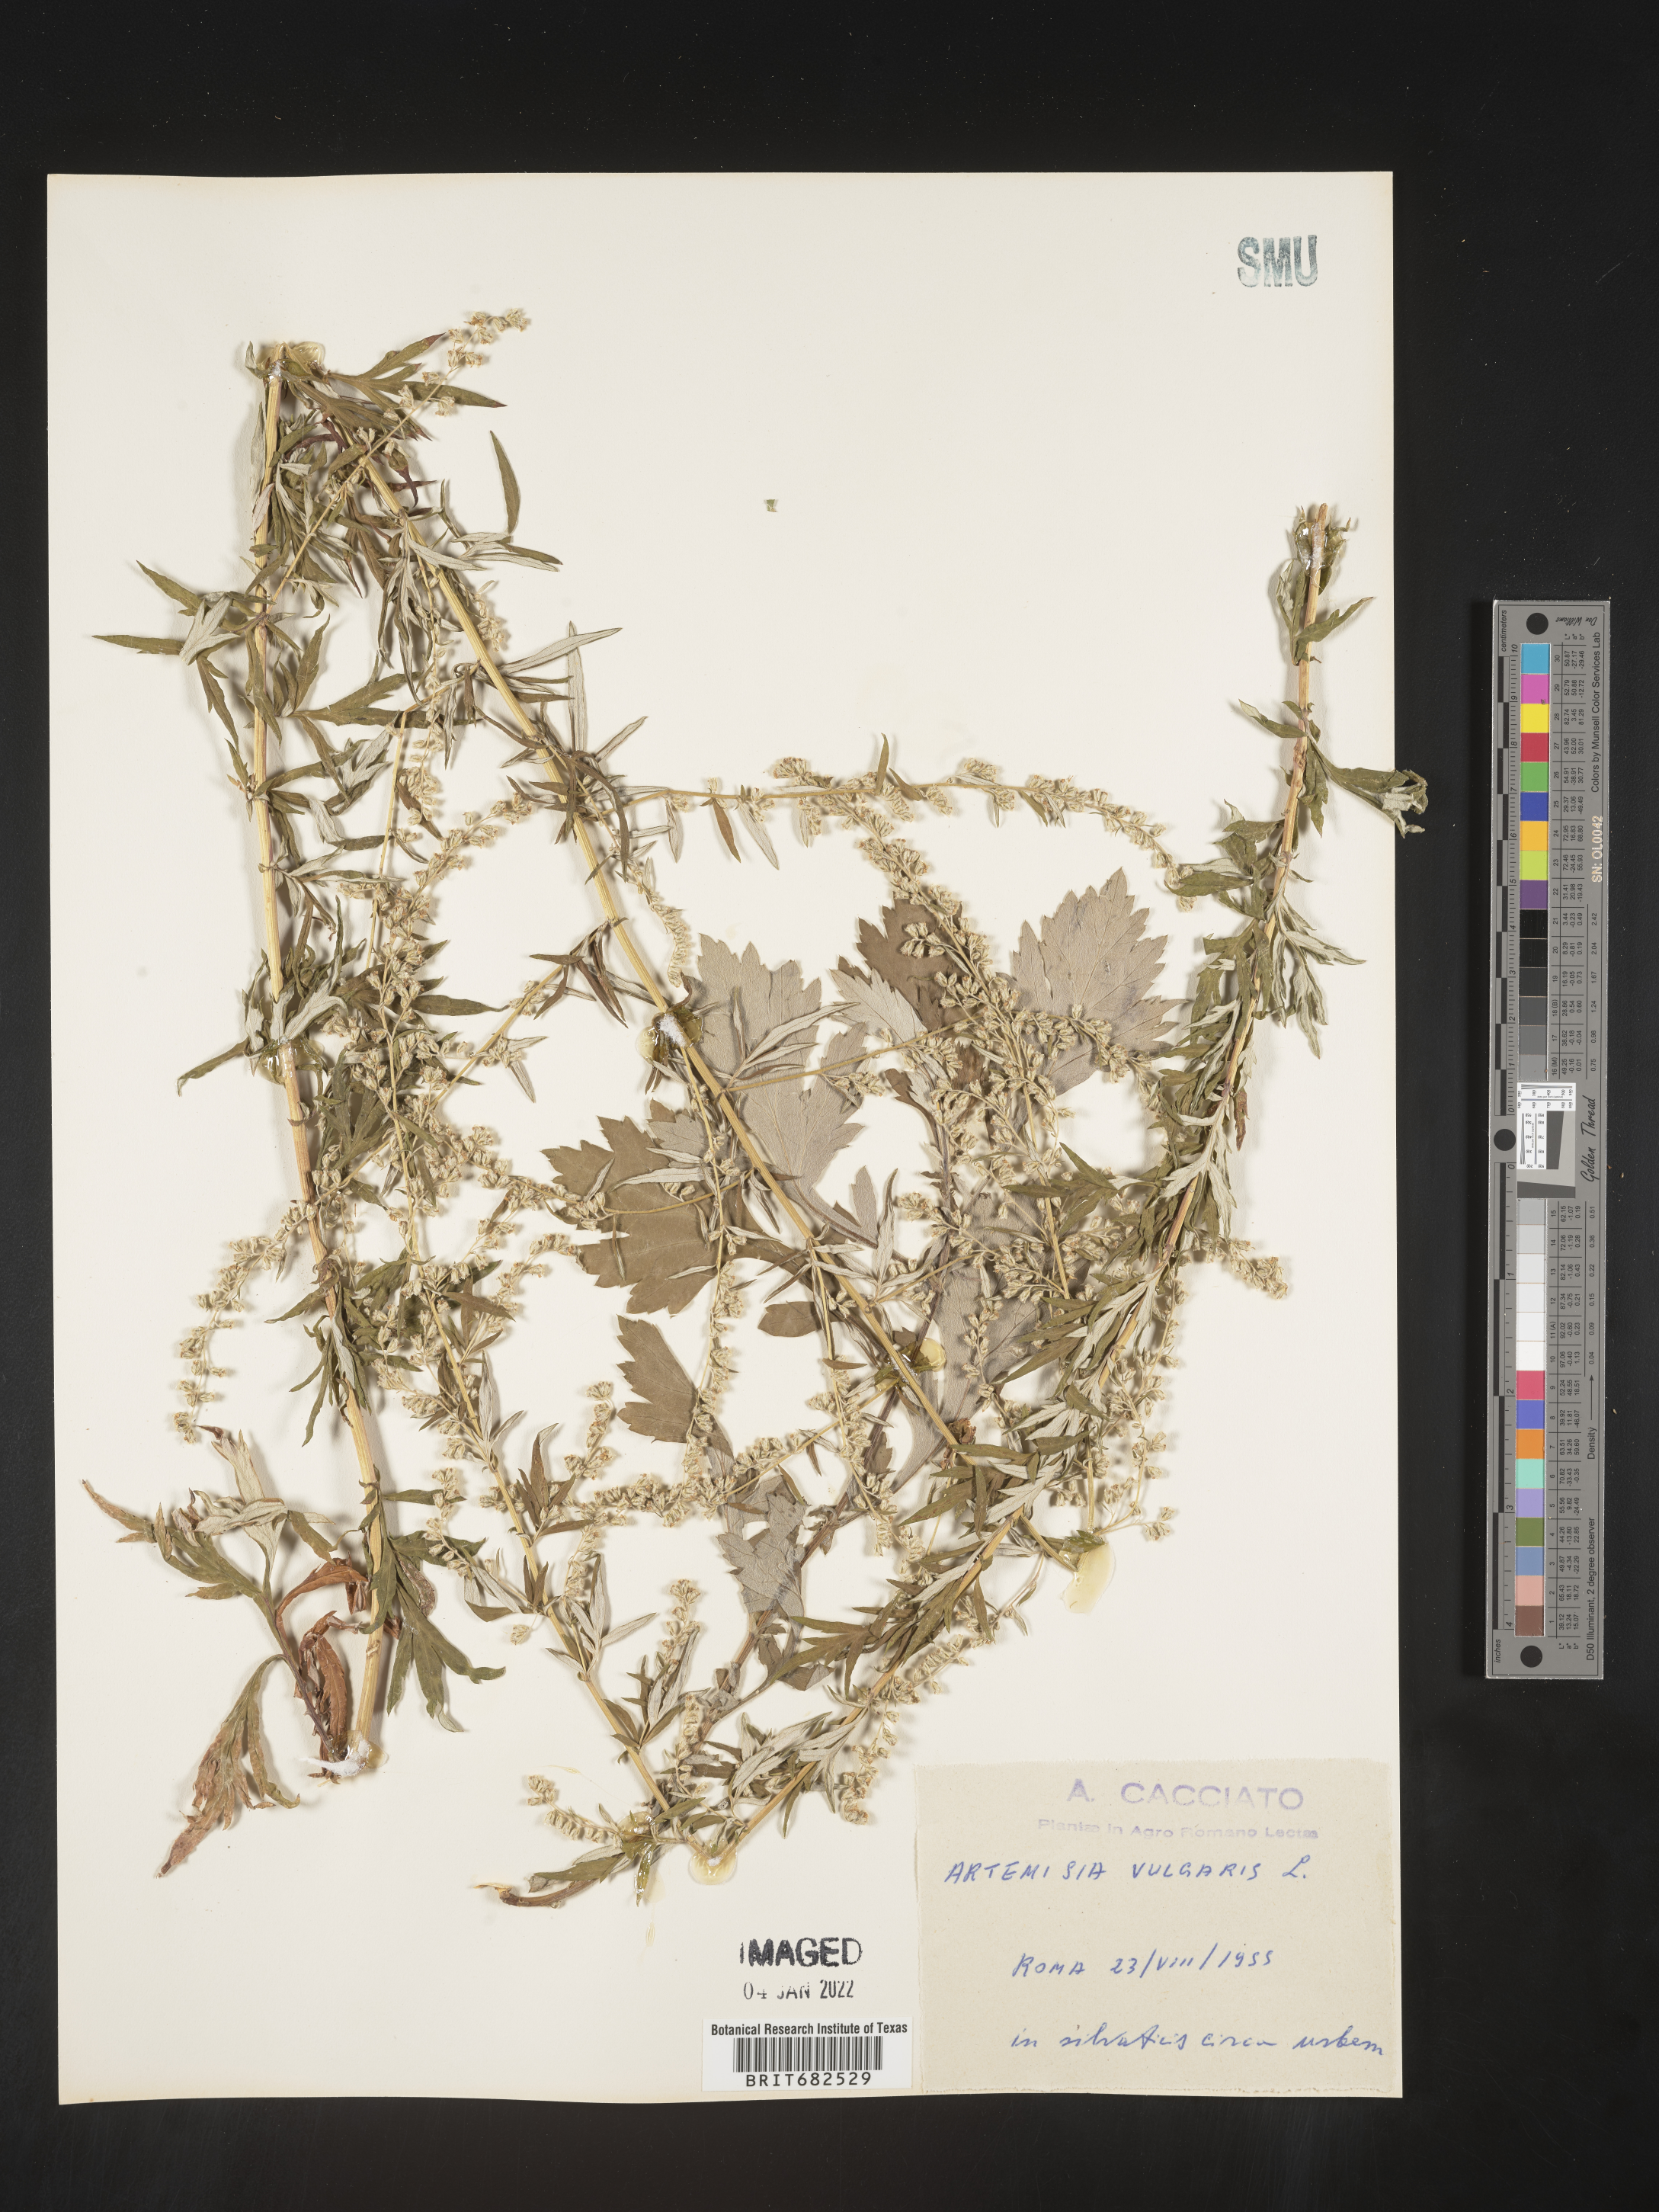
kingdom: Plantae
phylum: Tracheophyta
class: Magnoliopsida
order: Asterales
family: Asteraceae
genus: Artemisia
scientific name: Artemisia
